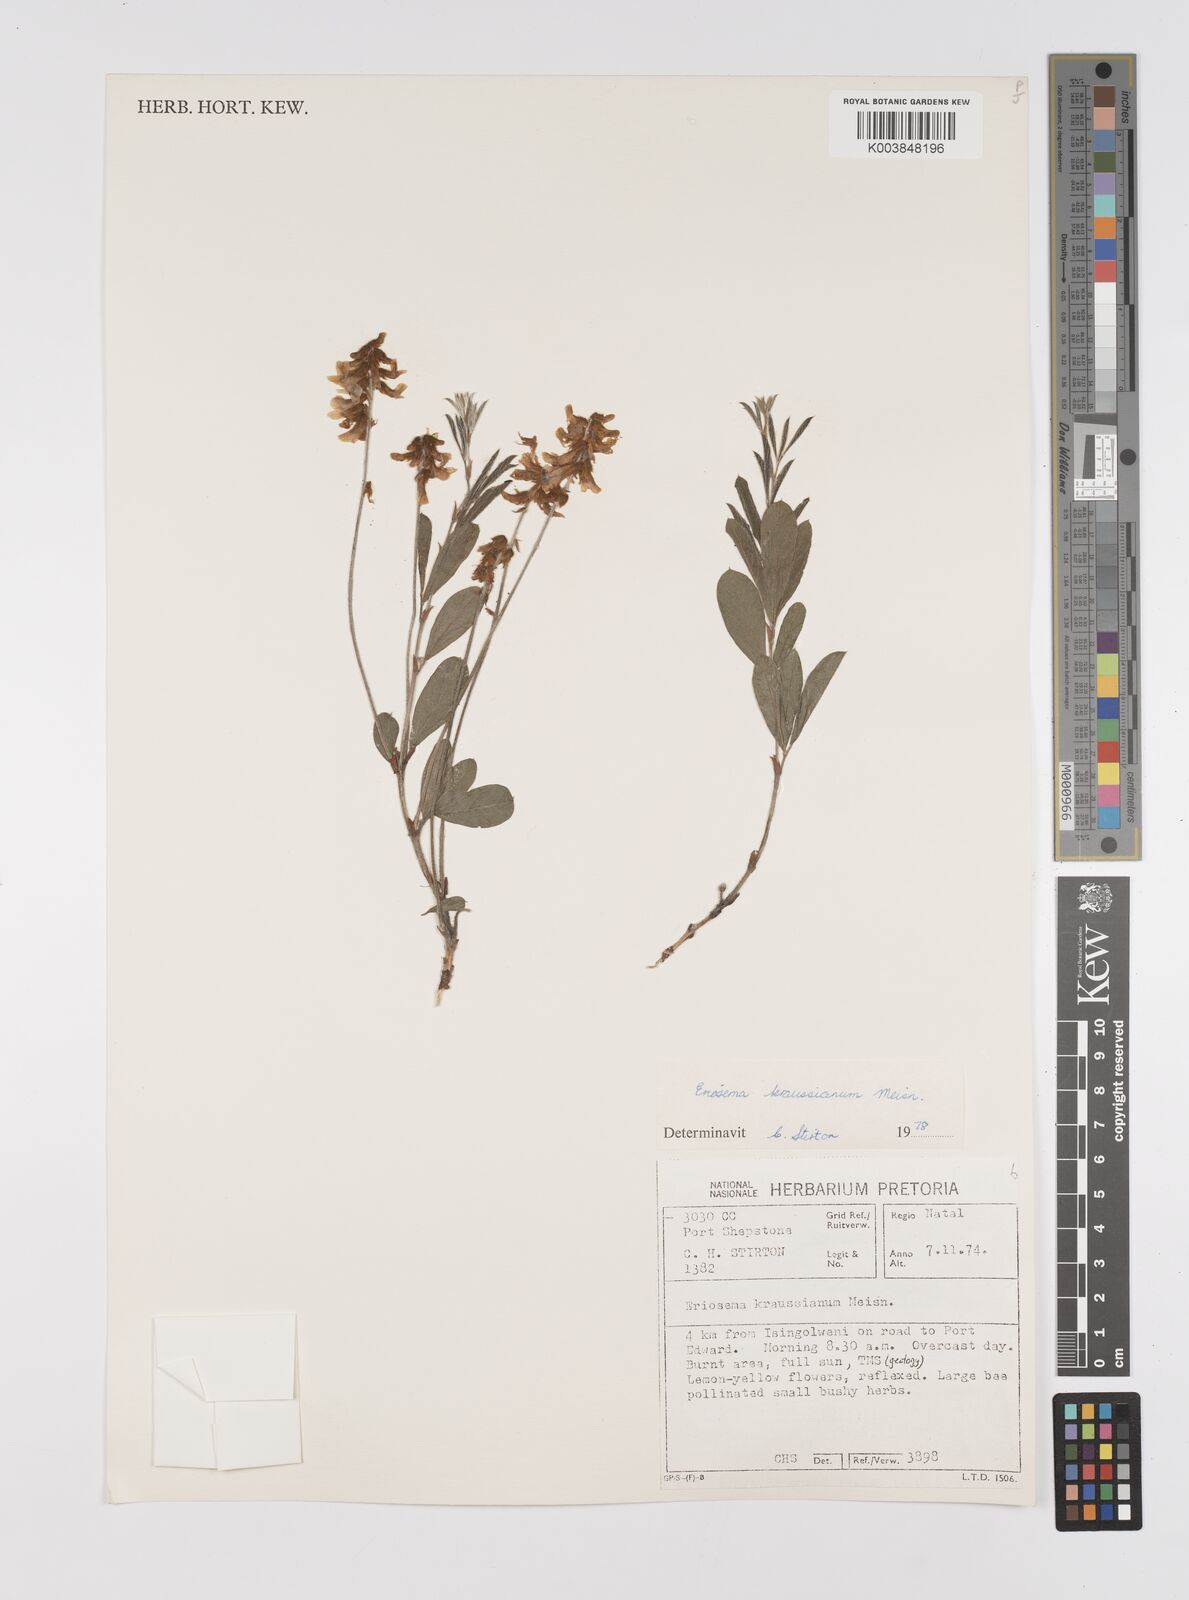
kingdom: Plantae
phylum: Tracheophyta
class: Magnoliopsida
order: Fabales
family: Fabaceae
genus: Eriosema
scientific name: Eriosema kraussianum
